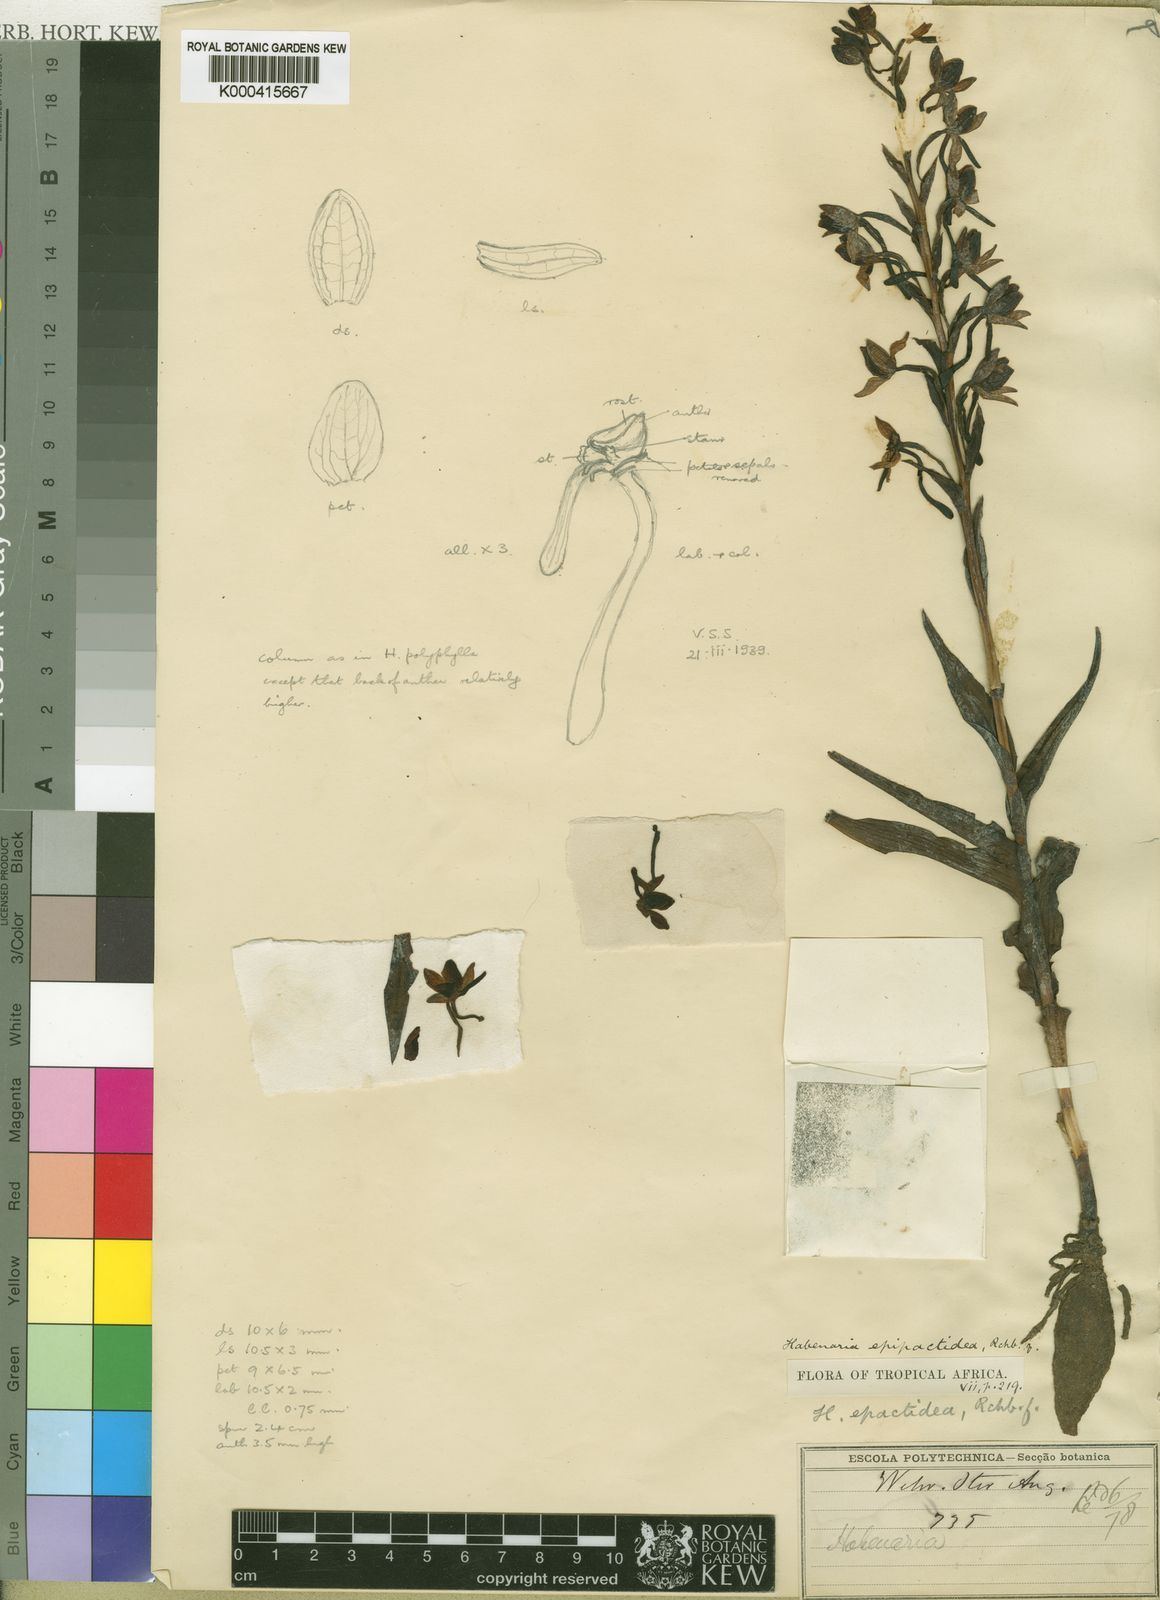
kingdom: Plantae
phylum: Tracheophyta
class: Liliopsida
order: Asparagales
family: Orchidaceae
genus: Habenaria
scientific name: Habenaria epipactidea
